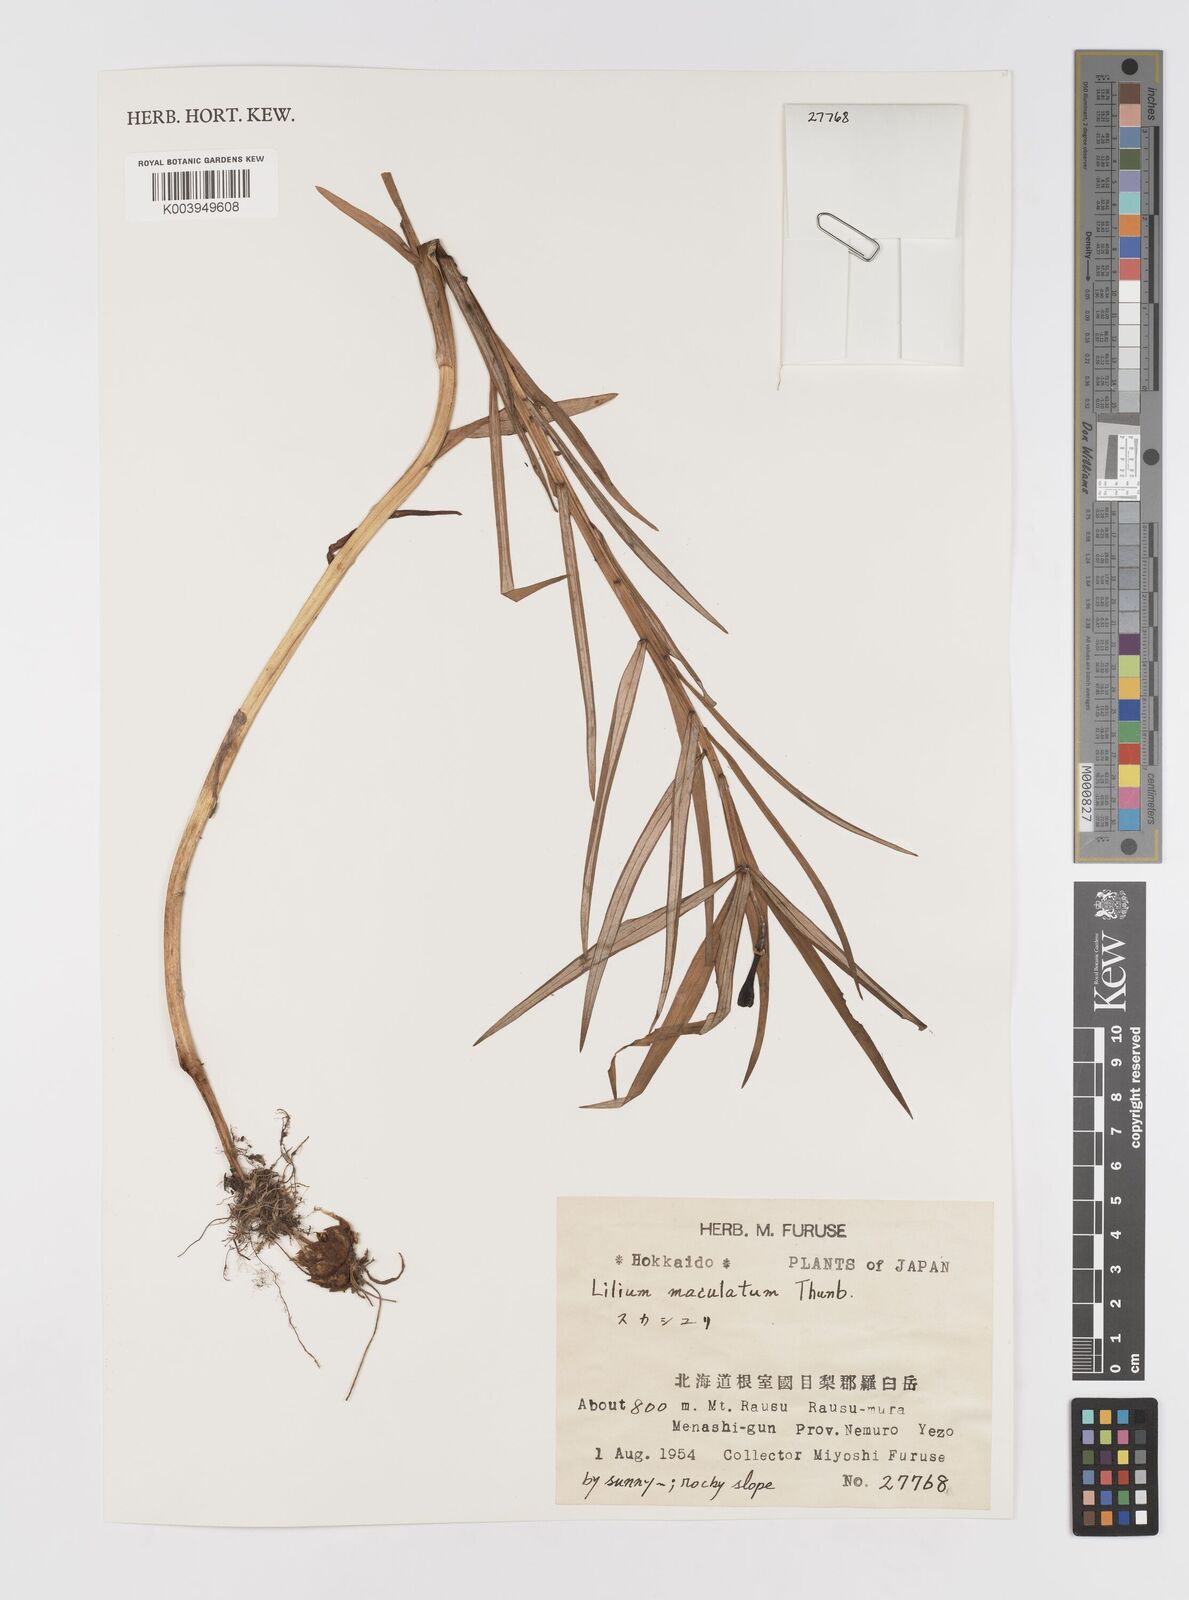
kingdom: Plantae
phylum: Tracheophyta
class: Liliopsida
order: Liliales
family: Liliaceae
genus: Lilium
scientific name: Lilium maculatum
